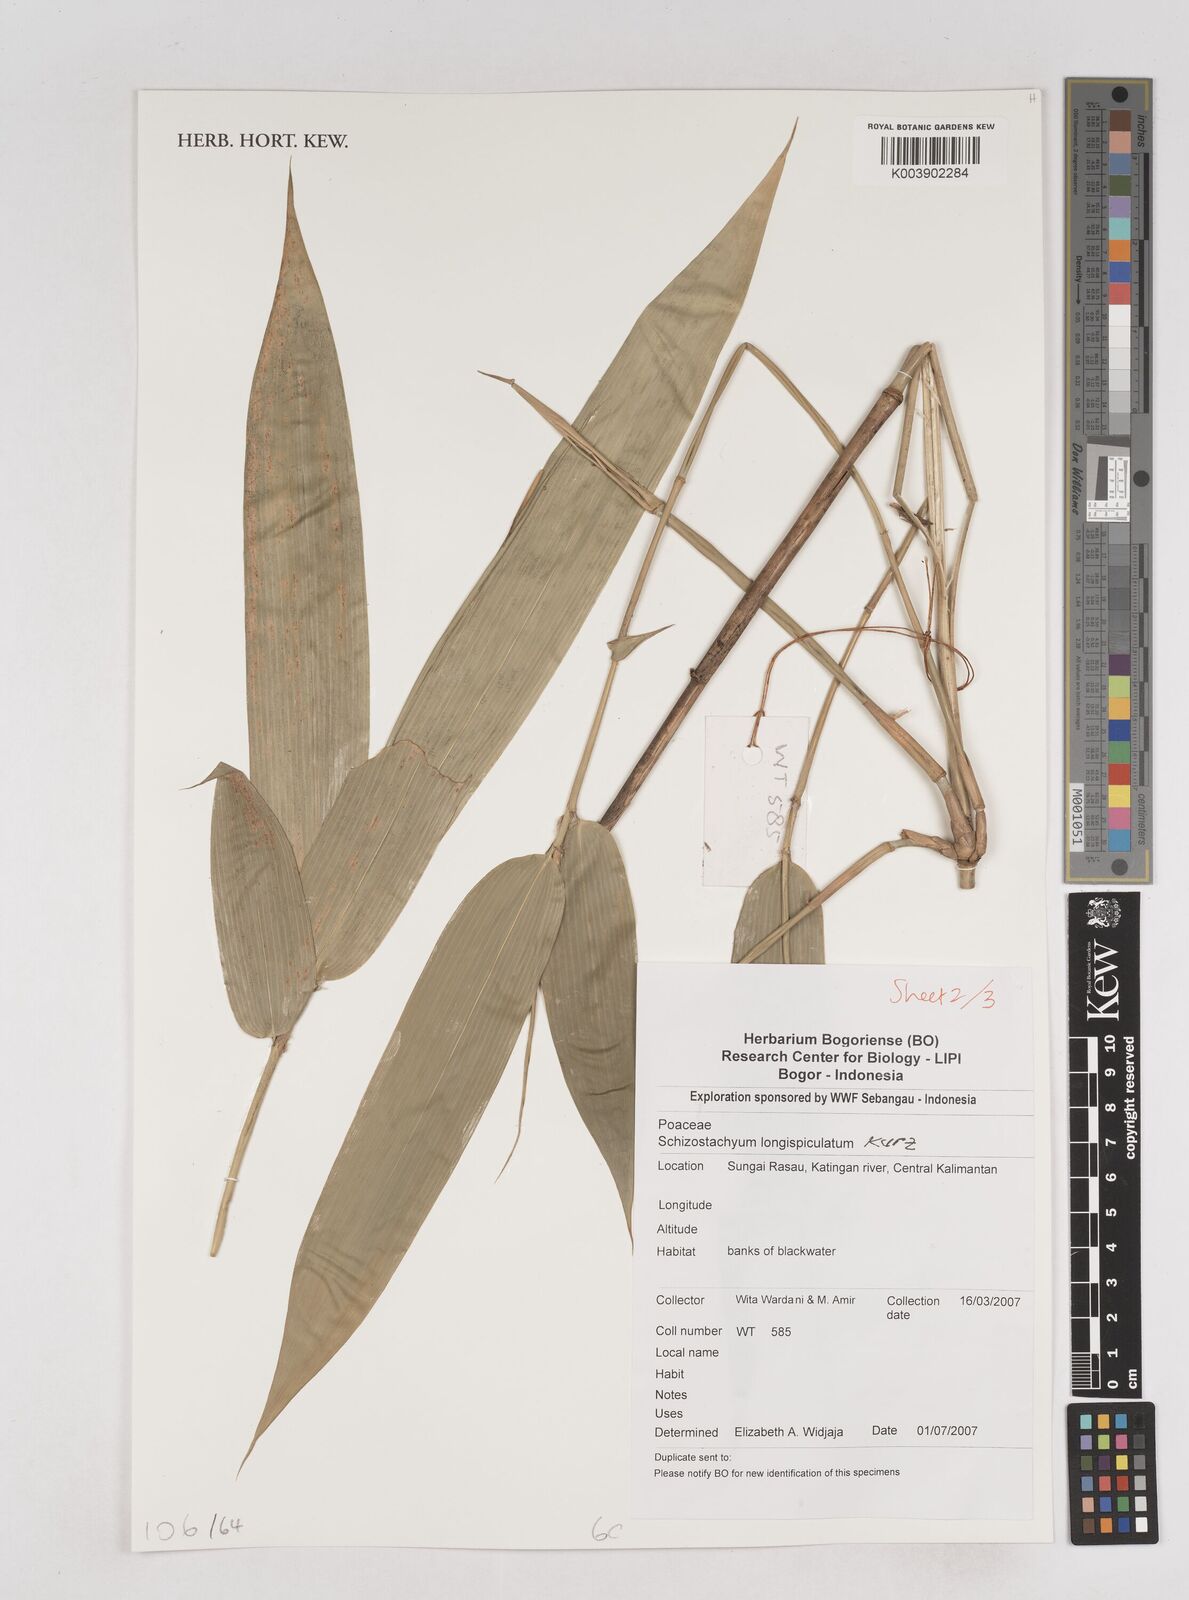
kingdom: Plantae
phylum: Tracheophyta
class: Liliopsida
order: Poales
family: Poaceae
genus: Schizostachyum
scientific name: Schizostachyum blumei
